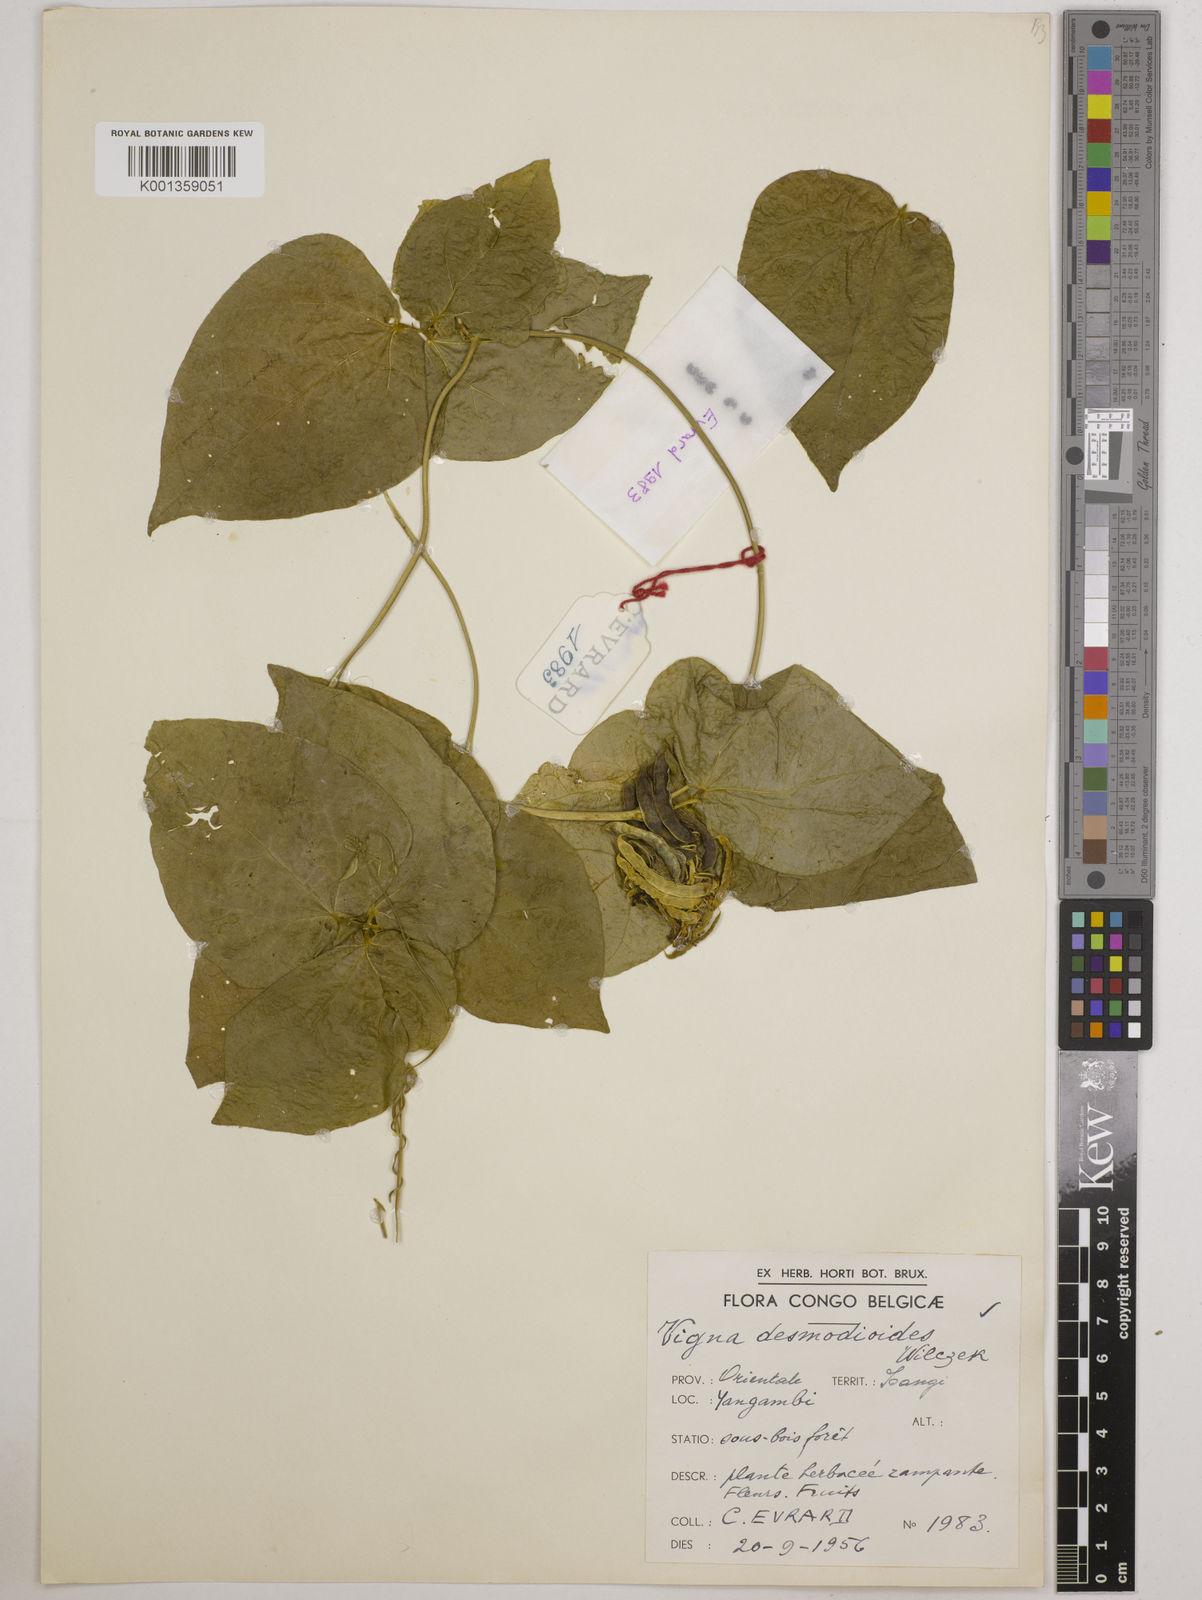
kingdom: Plantae
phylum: Tracheophyta
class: Magnoliopsida
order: Fabales
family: Fabaceae
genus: Vigna
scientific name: Vigna gracilis
